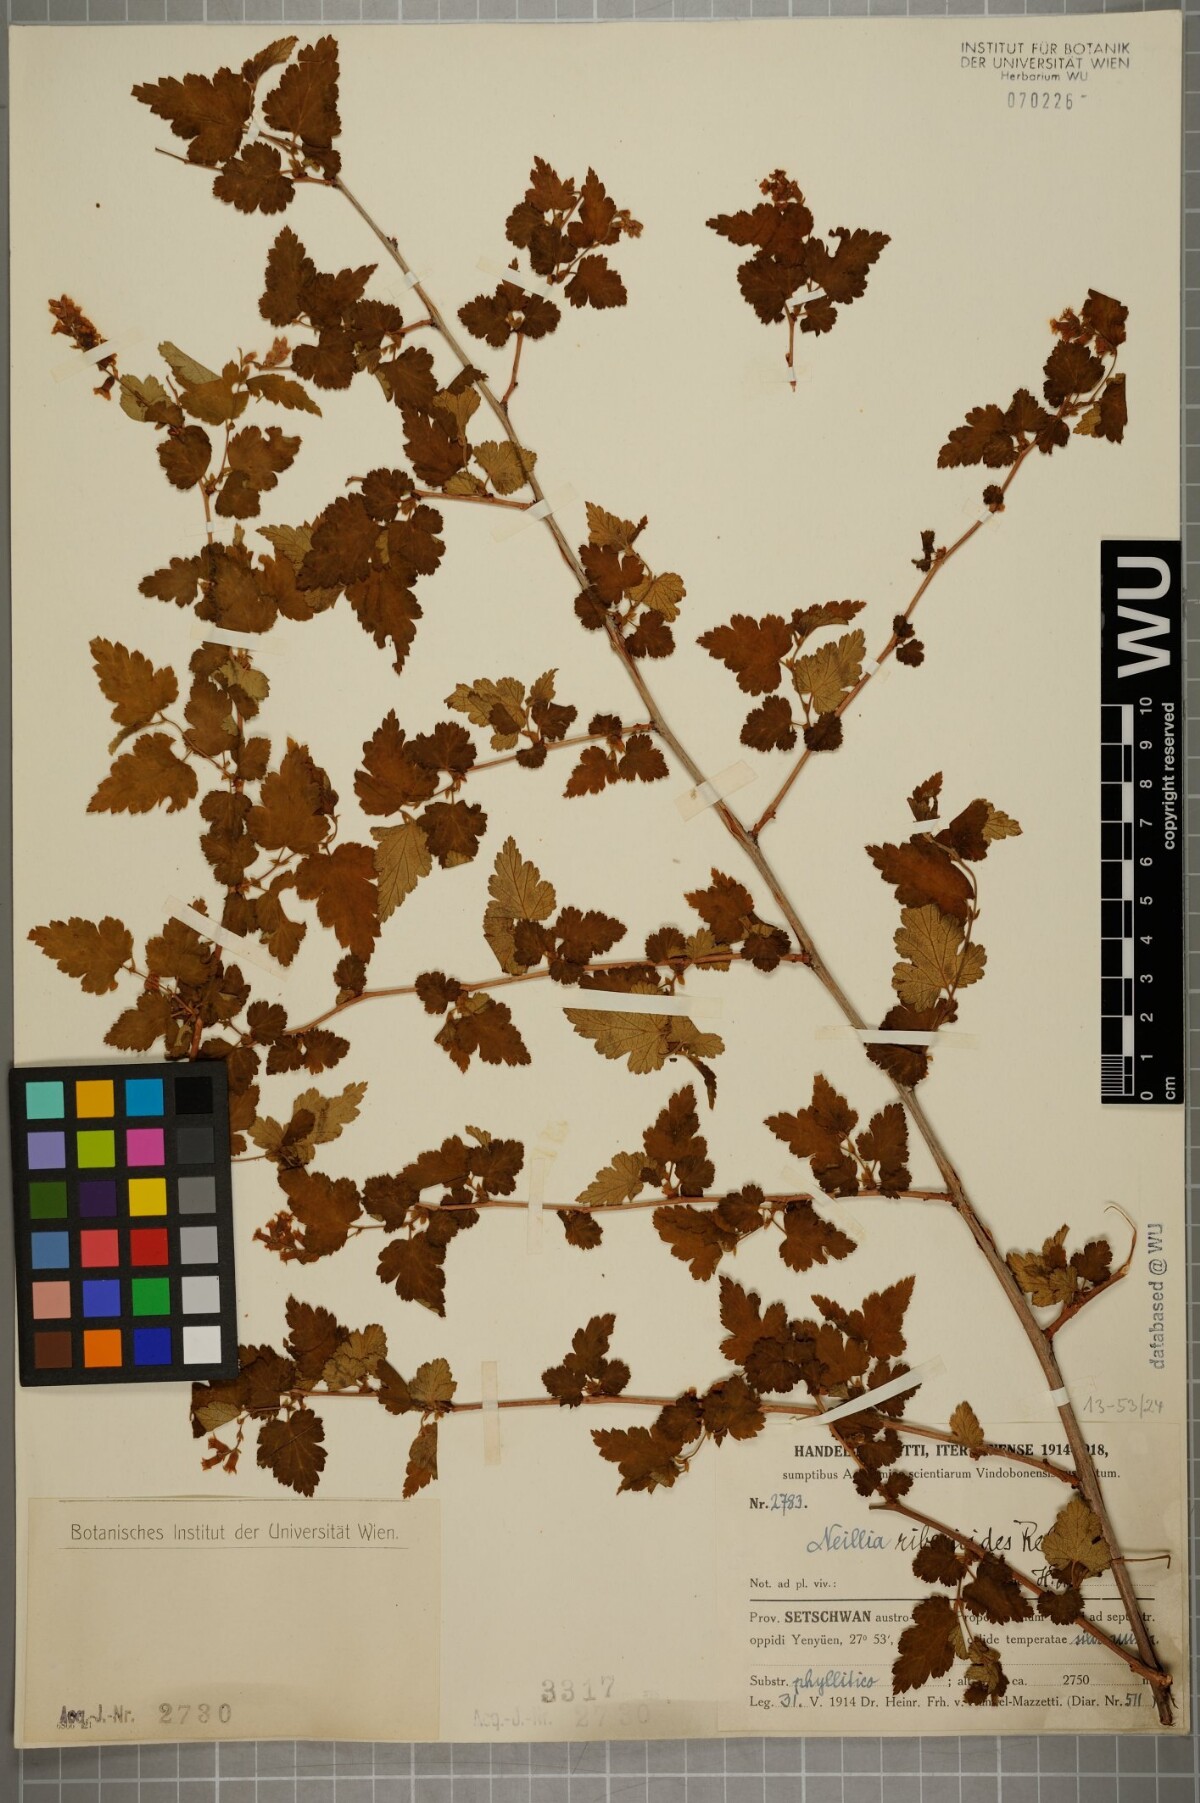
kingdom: Plantae
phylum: Tracheophyta
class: Magnoliopsida
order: Rosales
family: Rosaceae
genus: Neillia
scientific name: Neillia sinensis
